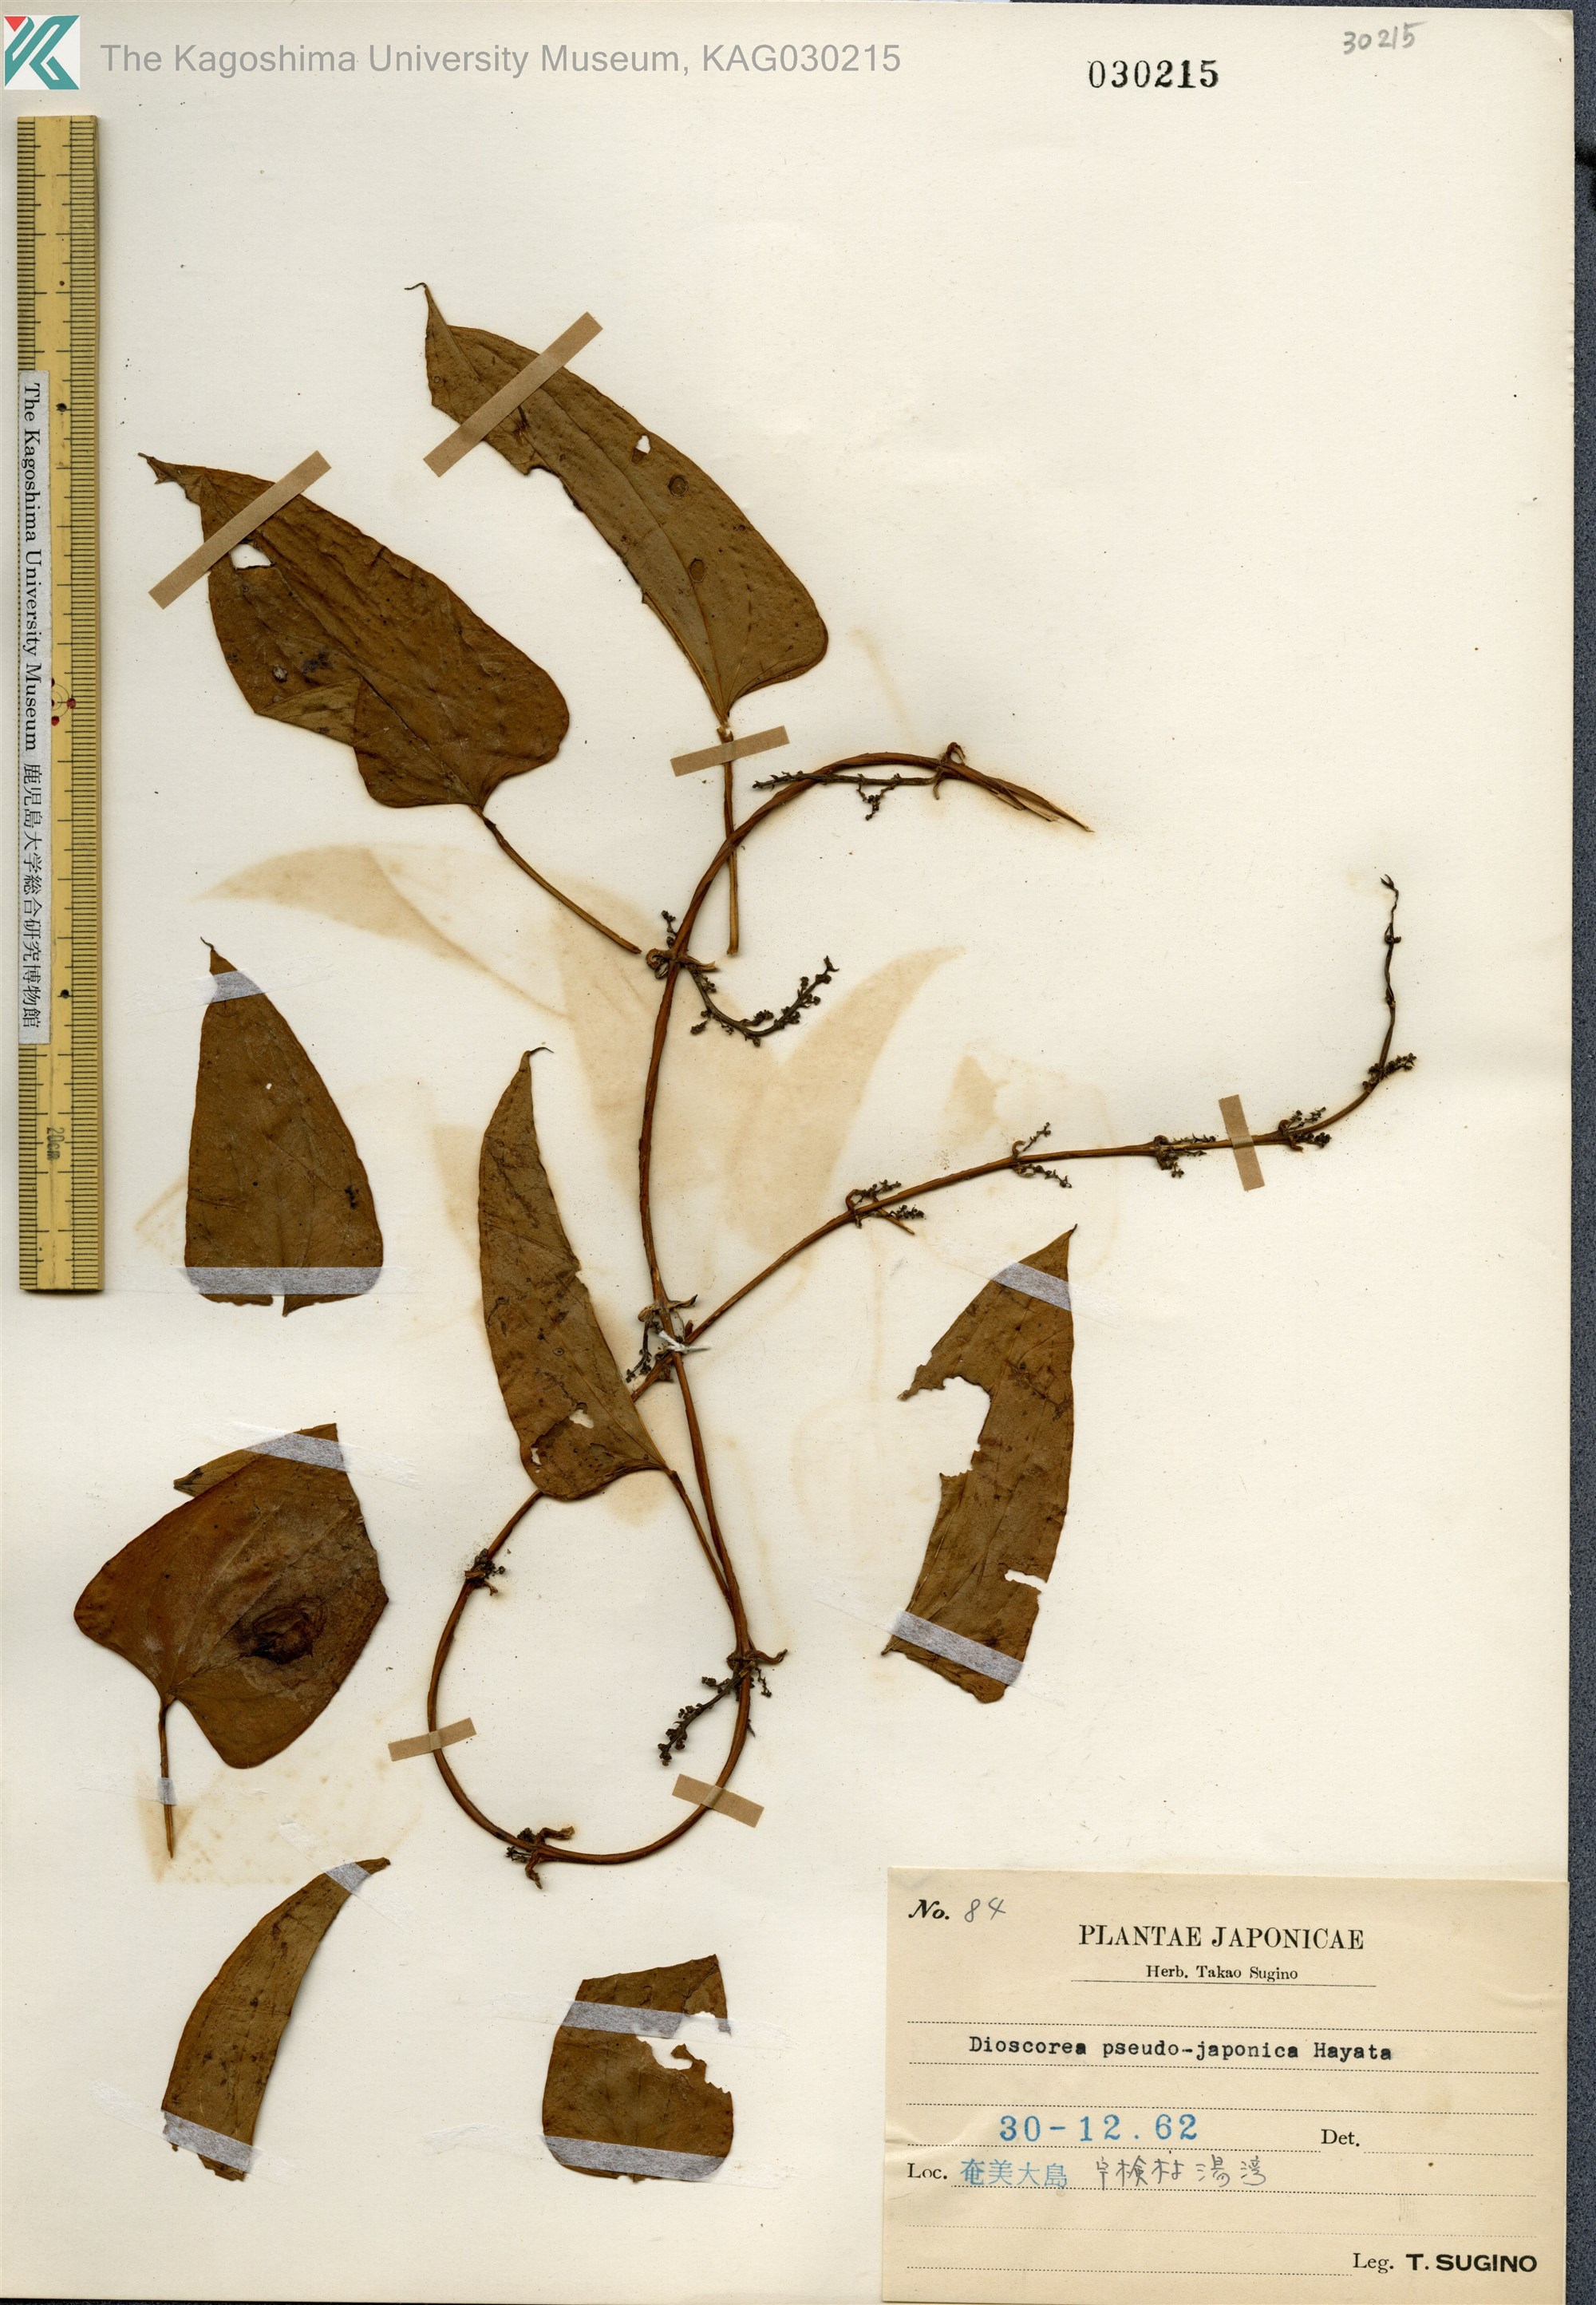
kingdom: Plantae
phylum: Tracheophyta
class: Liliopsida
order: Dioscoreales
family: Dioscoreaceae
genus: Dioscorea
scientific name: Dioscorea pseudojaponica
